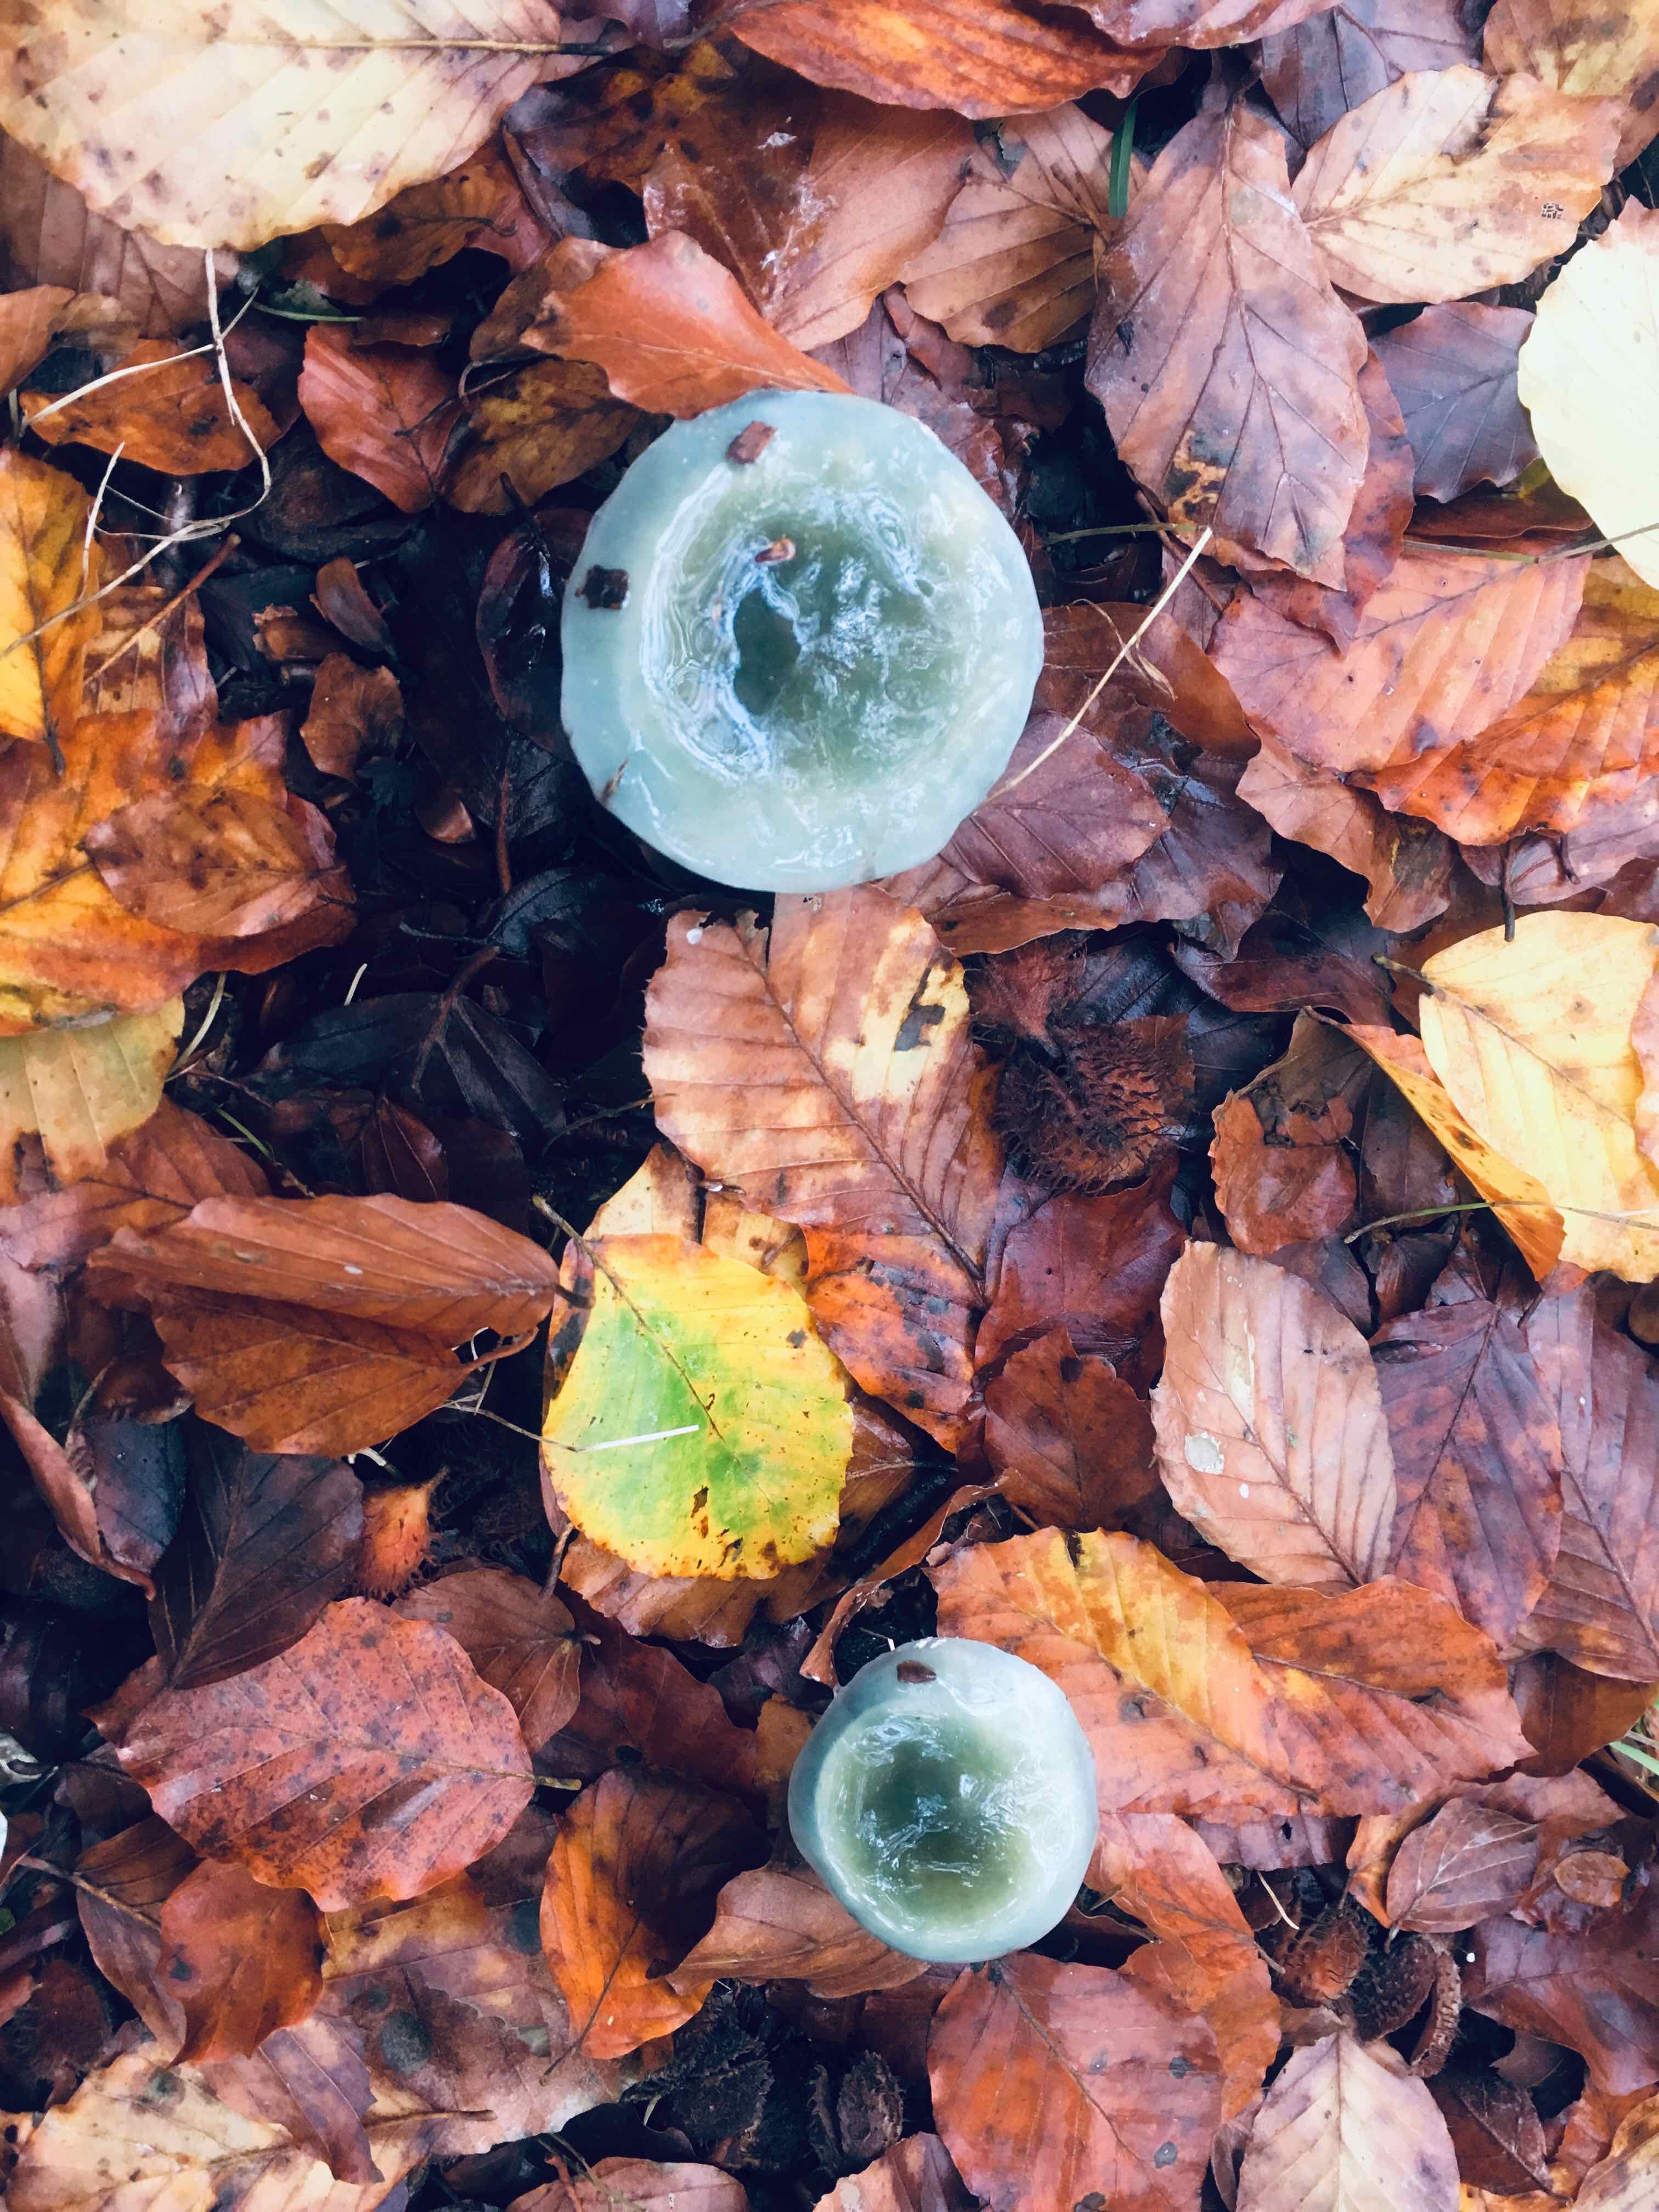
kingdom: Fungi
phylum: Basidiomycota
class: Agaricomycetes
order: Agaricales
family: Strophariaceae
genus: Stropharia
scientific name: Stropharia cyanea
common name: blågrøn bredblad
